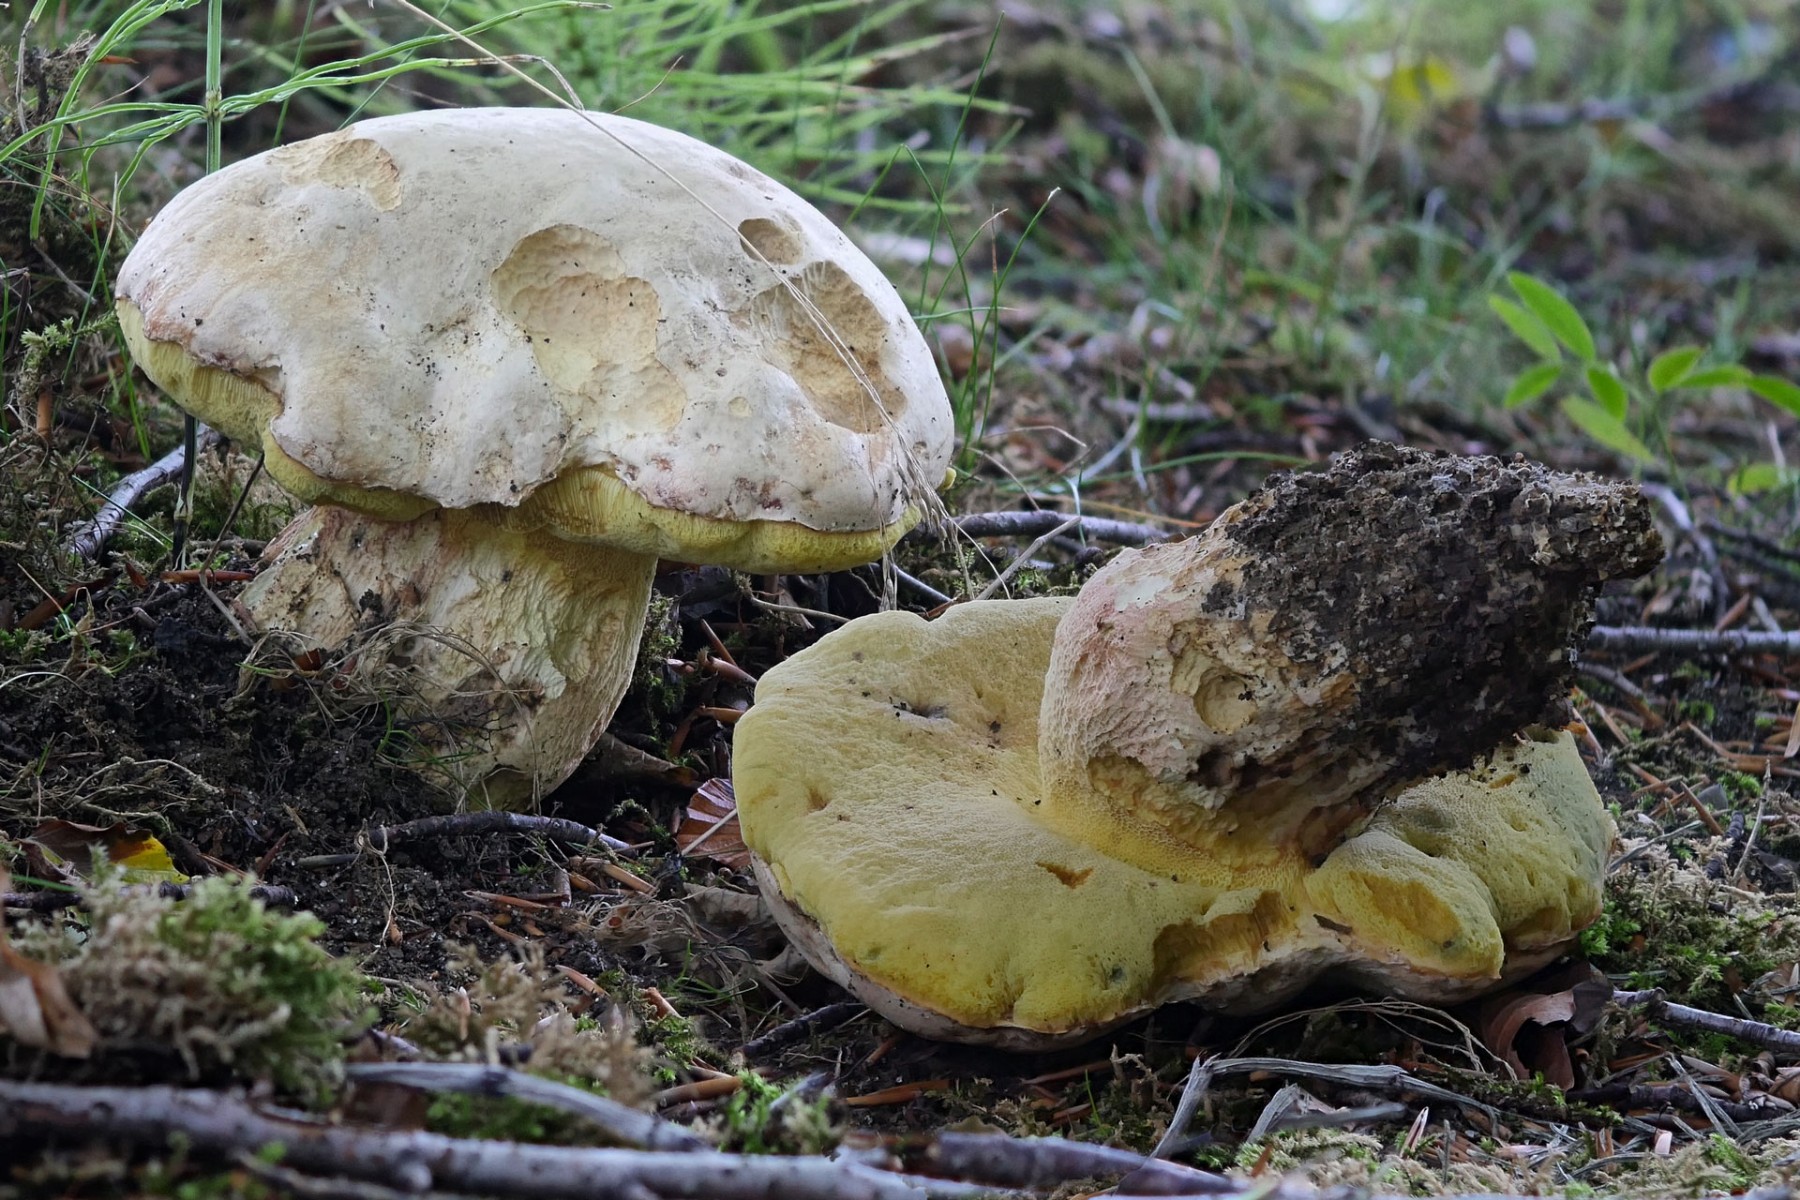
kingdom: Fungi
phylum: Basidiomycota
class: Agaricomycetes
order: Boletales
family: Boletaceae
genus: Butyriboletus
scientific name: Butyriboletus fechtneri
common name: sølvskinnende rørhat
